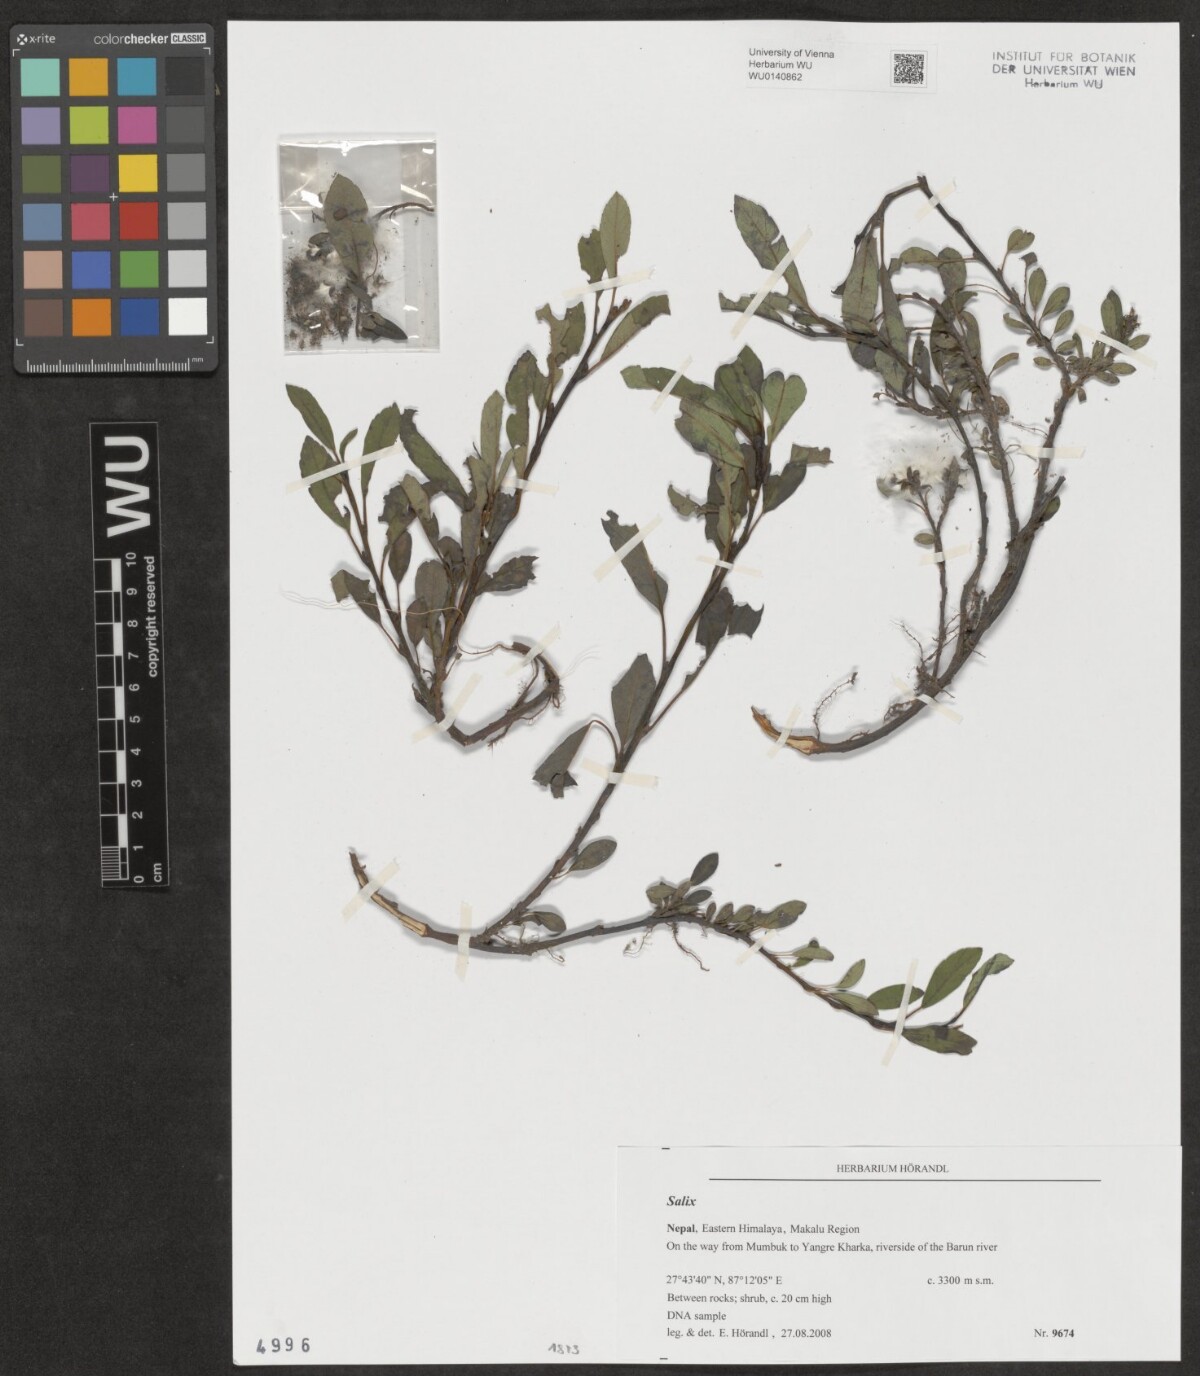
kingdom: Plantae
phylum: Tracheophyta
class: Magnoliopsida
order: Malpighiales
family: Salicaceae
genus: Salix
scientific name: Salix
